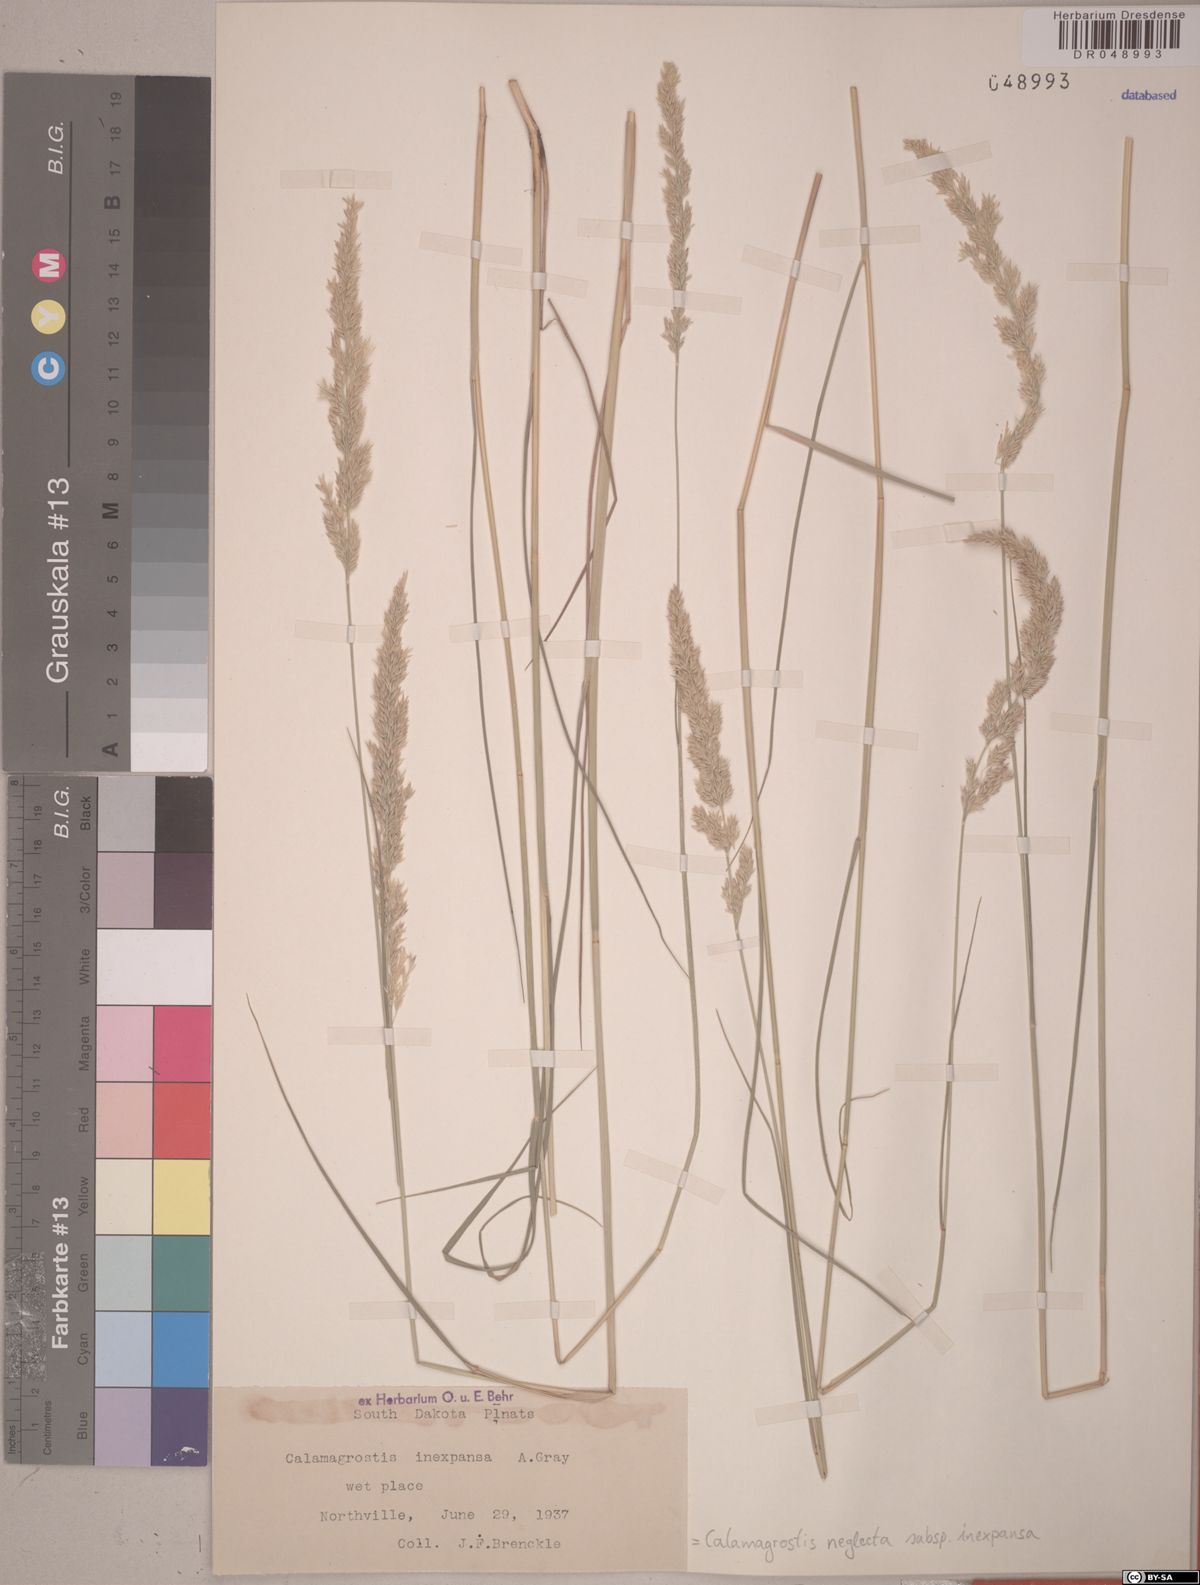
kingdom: Plantae
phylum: Tracheophyta
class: Liliopsida
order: Poales
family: Poaceae
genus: Calamagrostis
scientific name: Calamagrostis inexpansa
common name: Northern reedgrass
